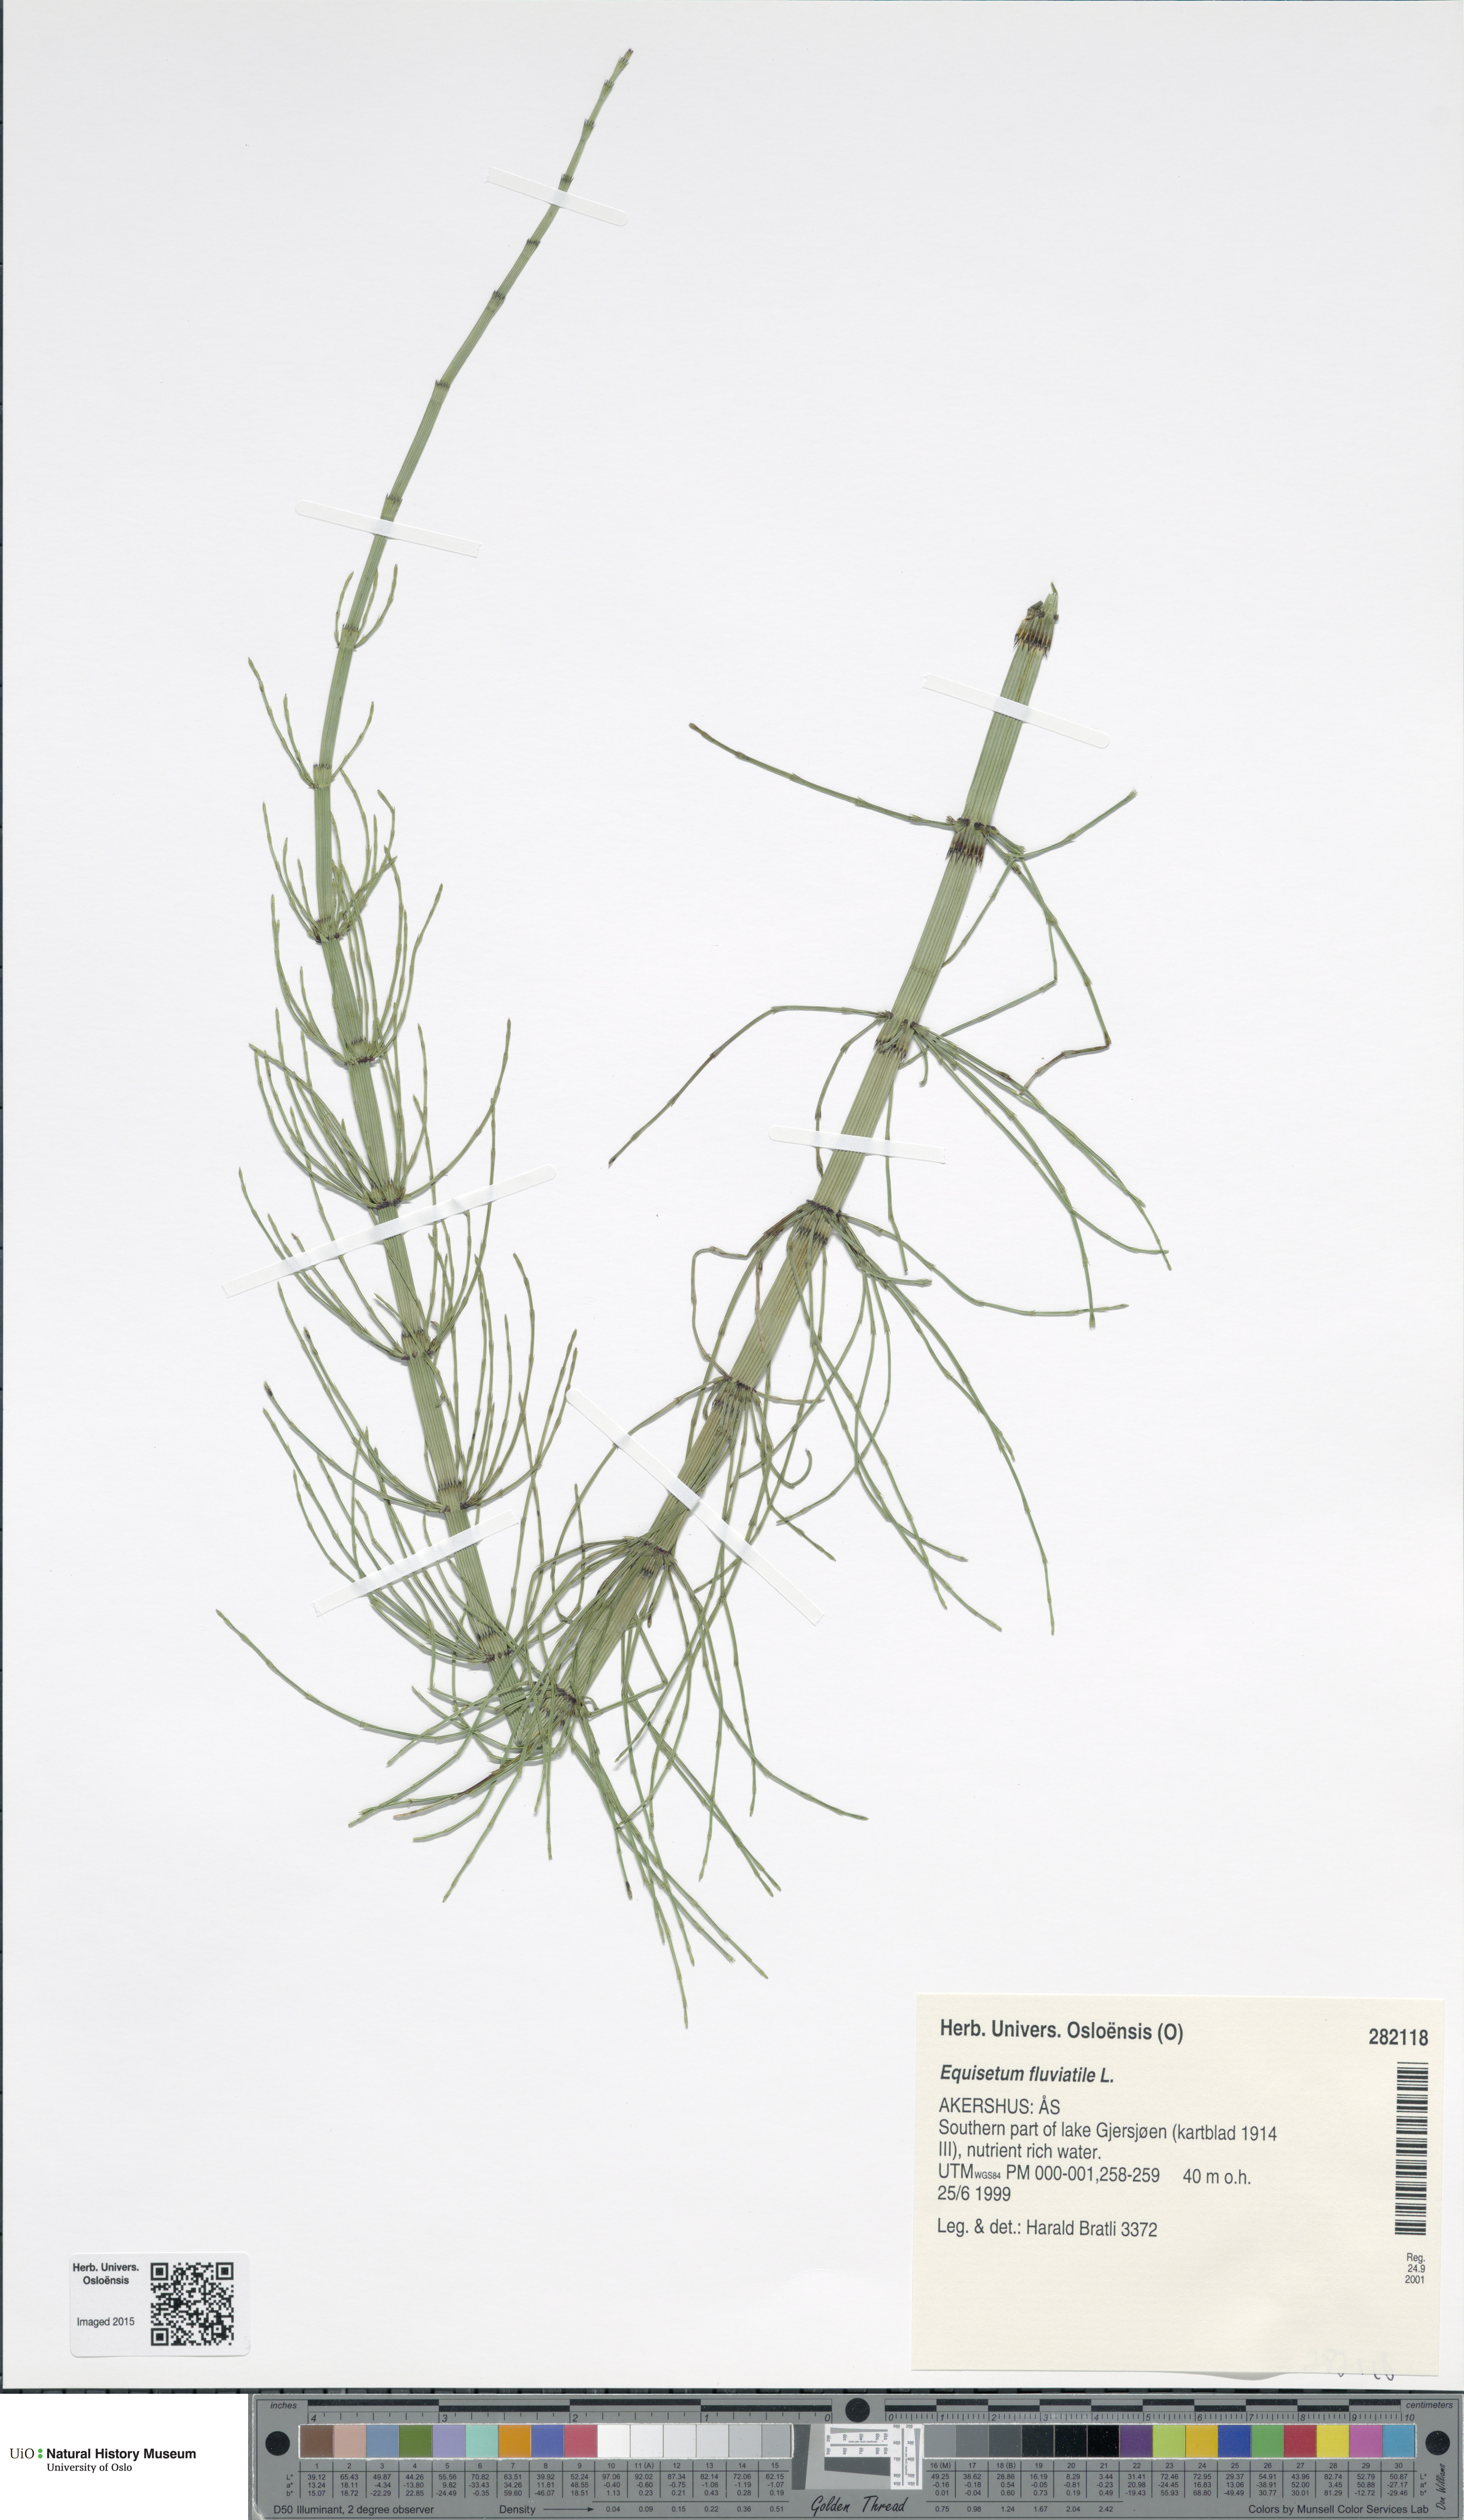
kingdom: Plantae
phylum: Tracheophyta
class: Polypodiopsida
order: Equisetales
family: Equisetaceae
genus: Equisetum
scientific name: Equisetum fluviatile
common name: Water horsetail
